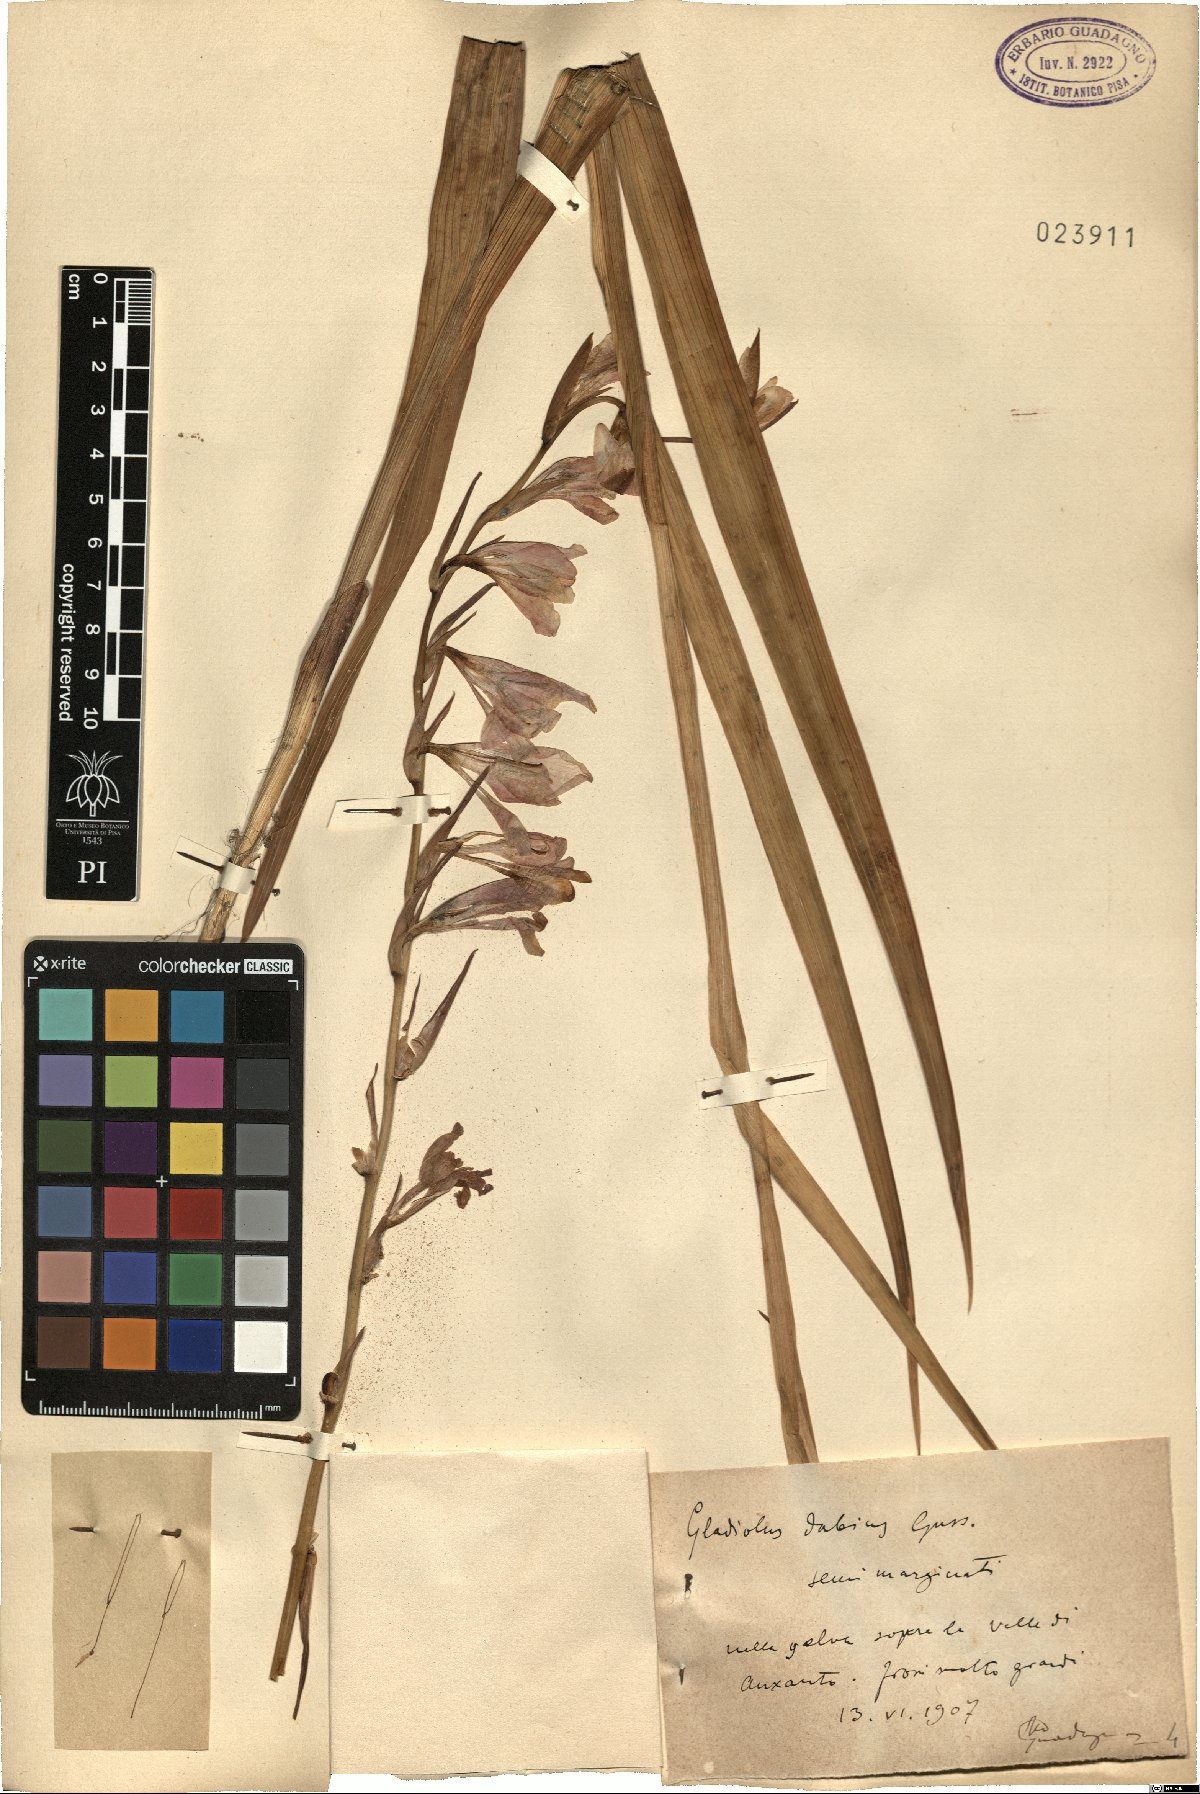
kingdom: Plantae
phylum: Tracheophyta
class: Liliopsida
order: Asparagales
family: Iridaceae
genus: Gladiolus
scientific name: Gladiolus dubius
